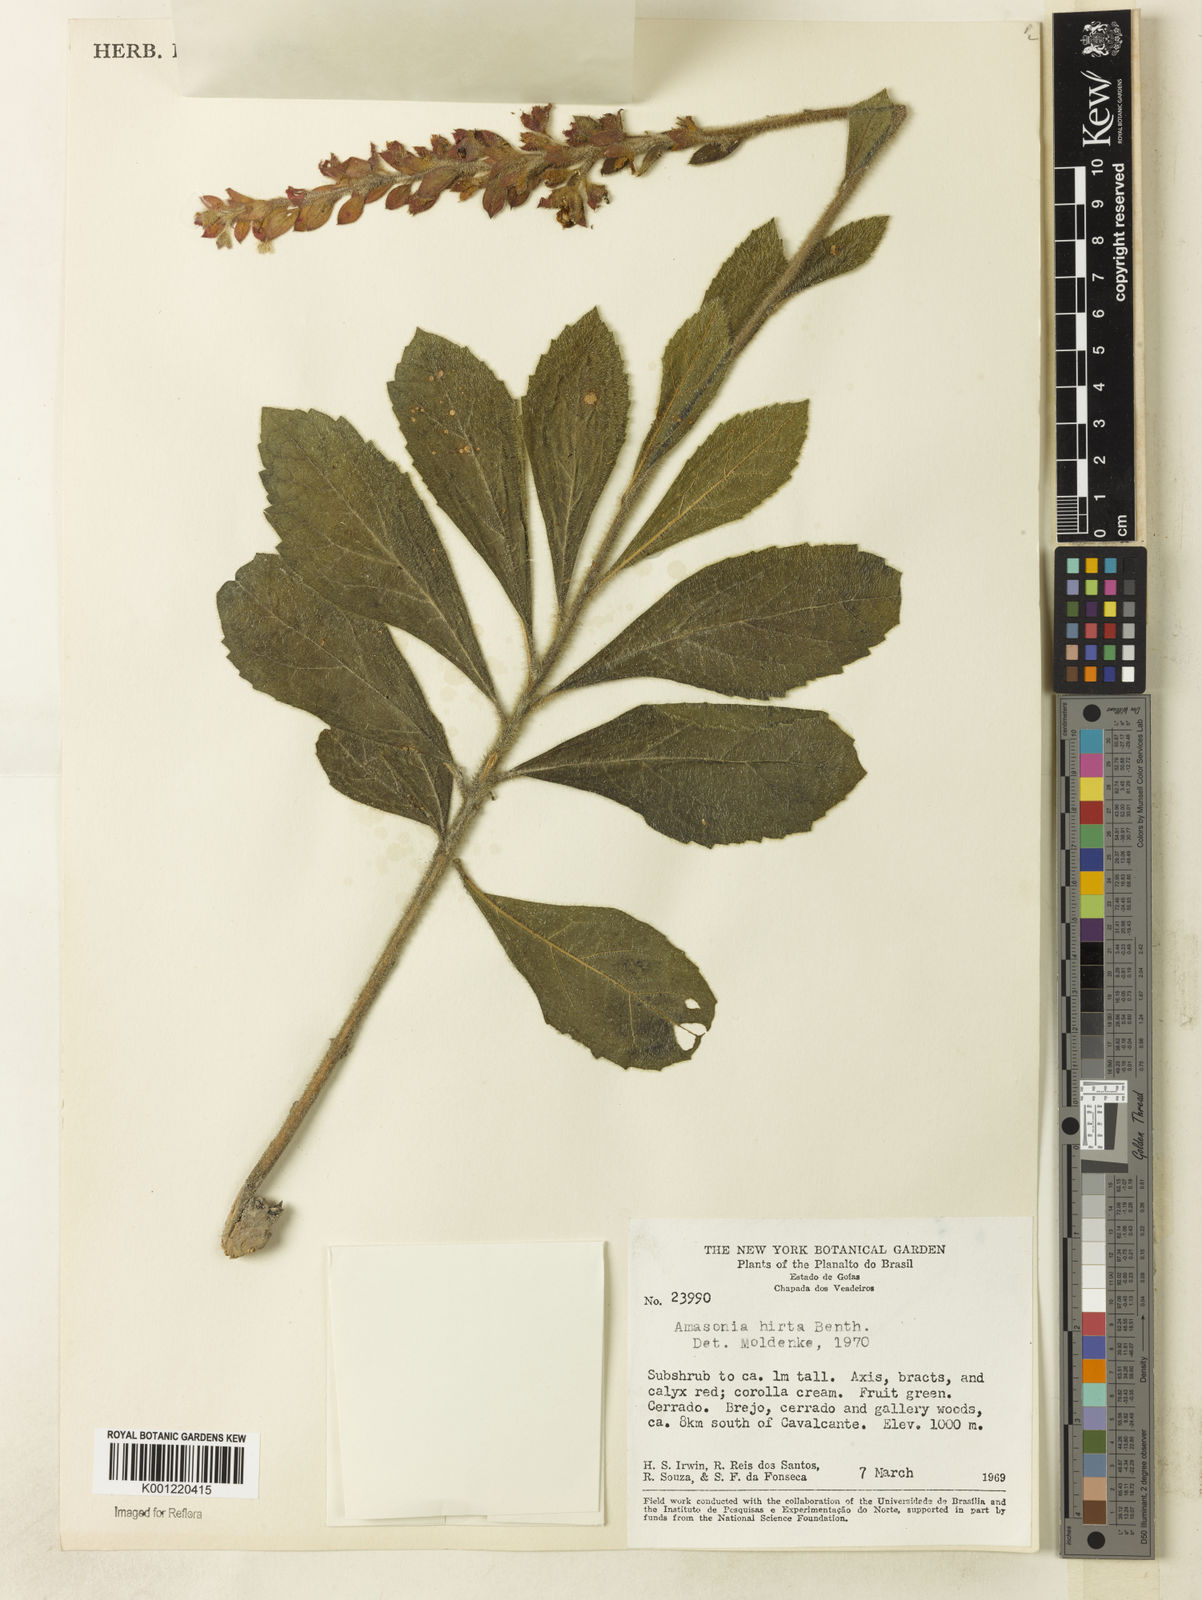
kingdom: Plantae
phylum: Tracheophyta
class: Magnoliopsida
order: Lamiales
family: Lamiaceae
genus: Amasonia
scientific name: Amasonia hirta
